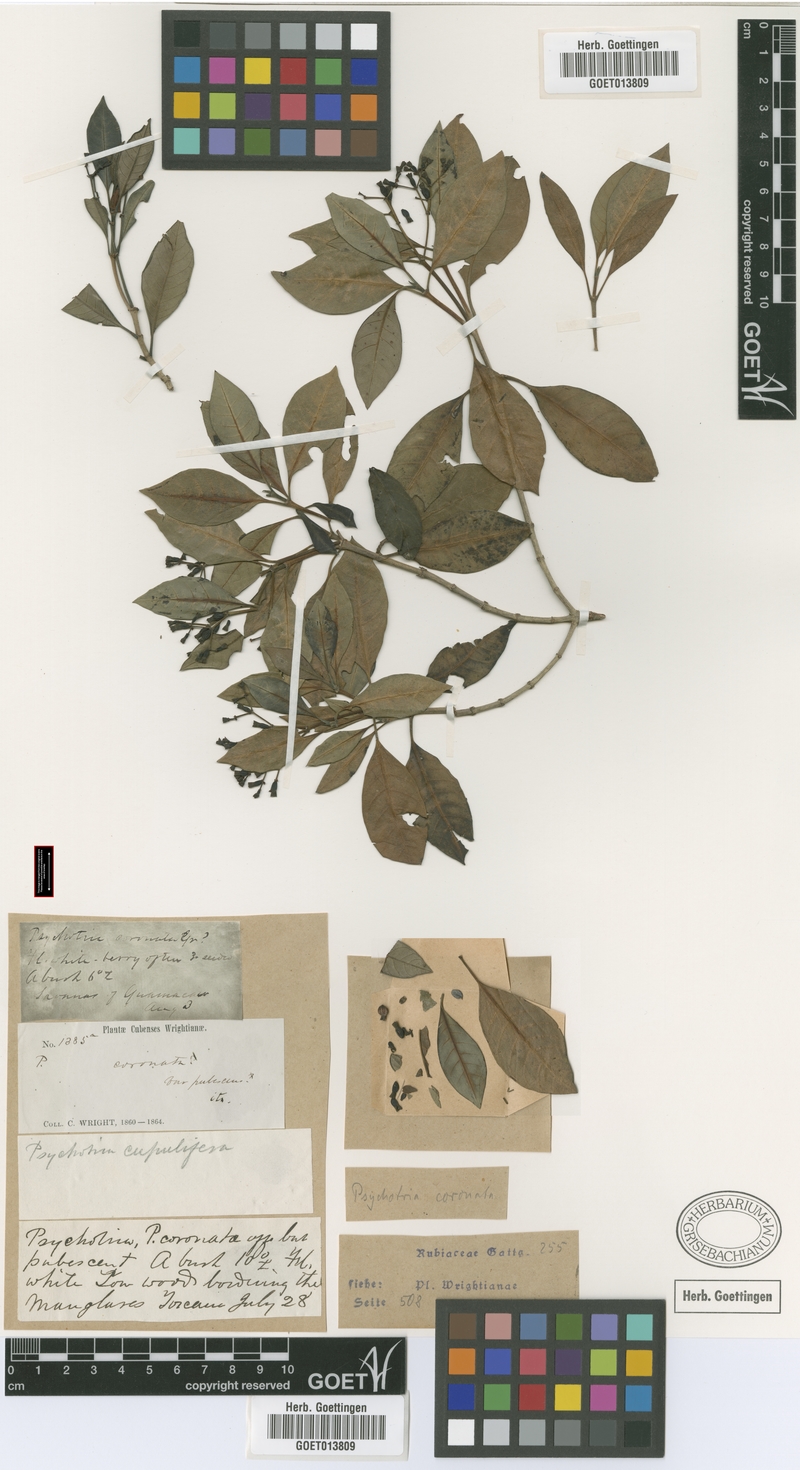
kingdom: Plantae
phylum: Tracheophyta
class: Magnoliopsida
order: Gentianales
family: Rubiaceae
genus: Psychotria
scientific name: Psychotria revoluta
